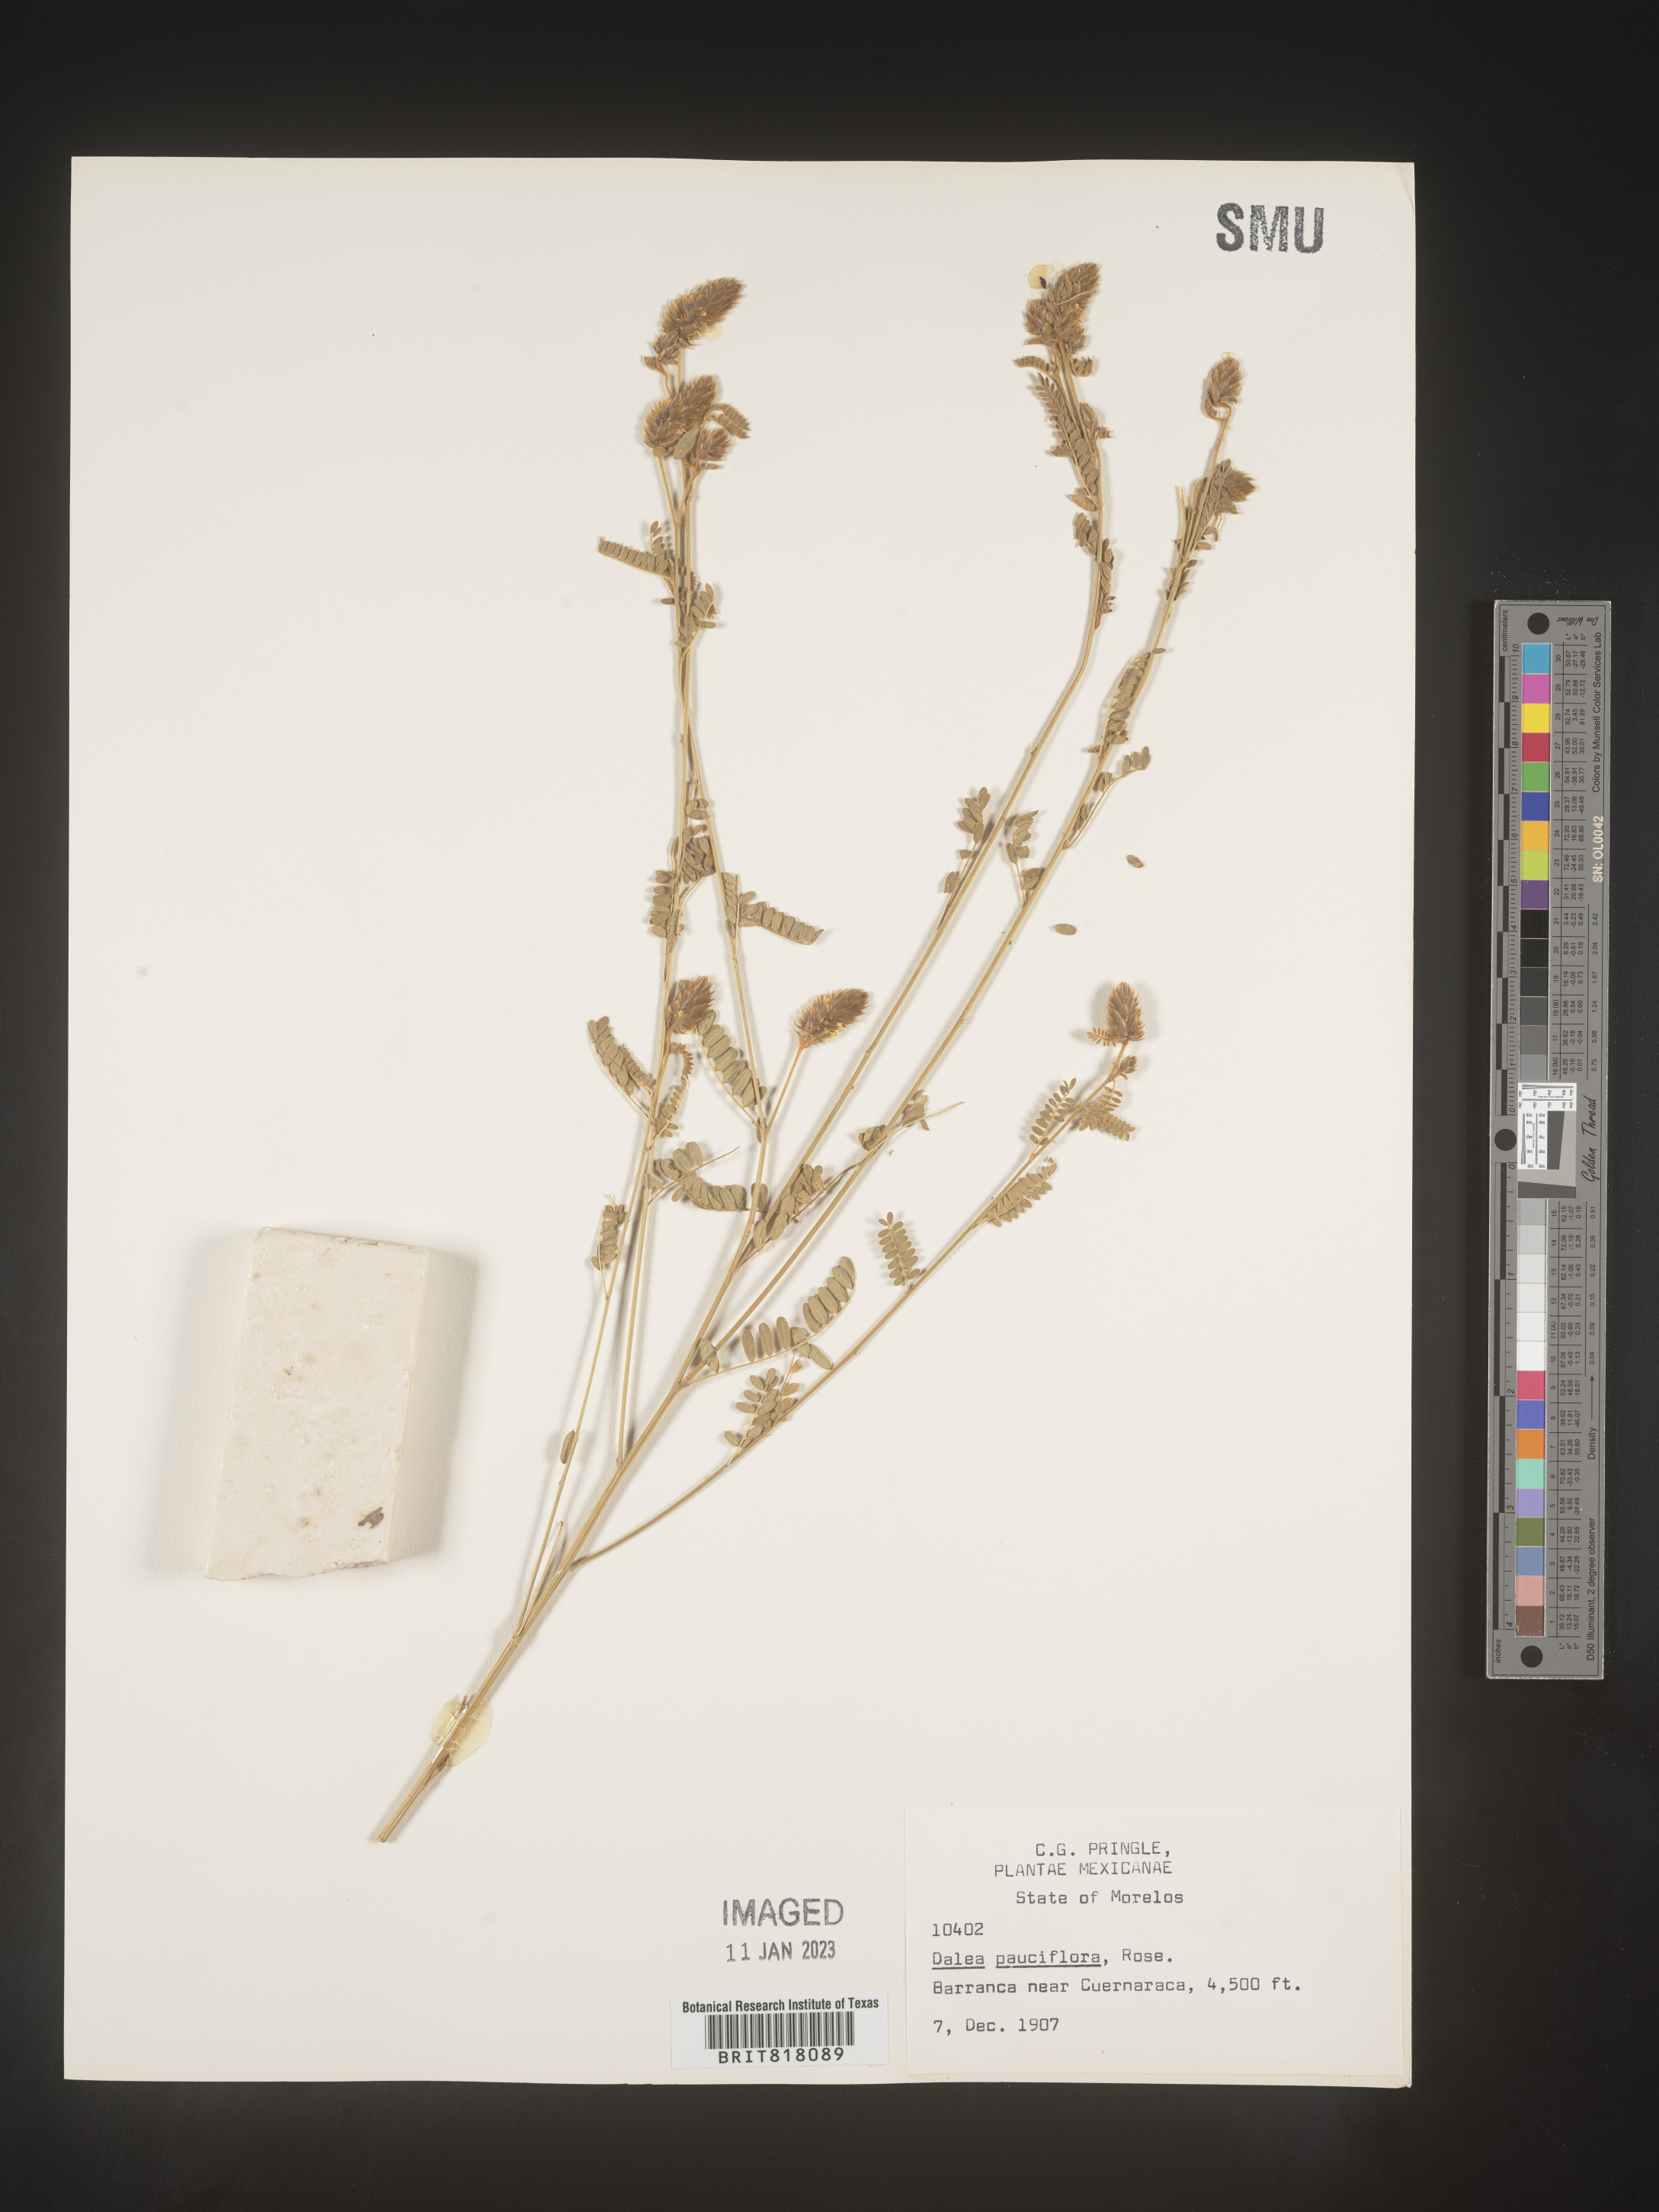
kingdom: Plantae
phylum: Tracheophyta
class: Magnoliopsida
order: Fabales
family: Fabaceae
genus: Dalea
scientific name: Dalea
